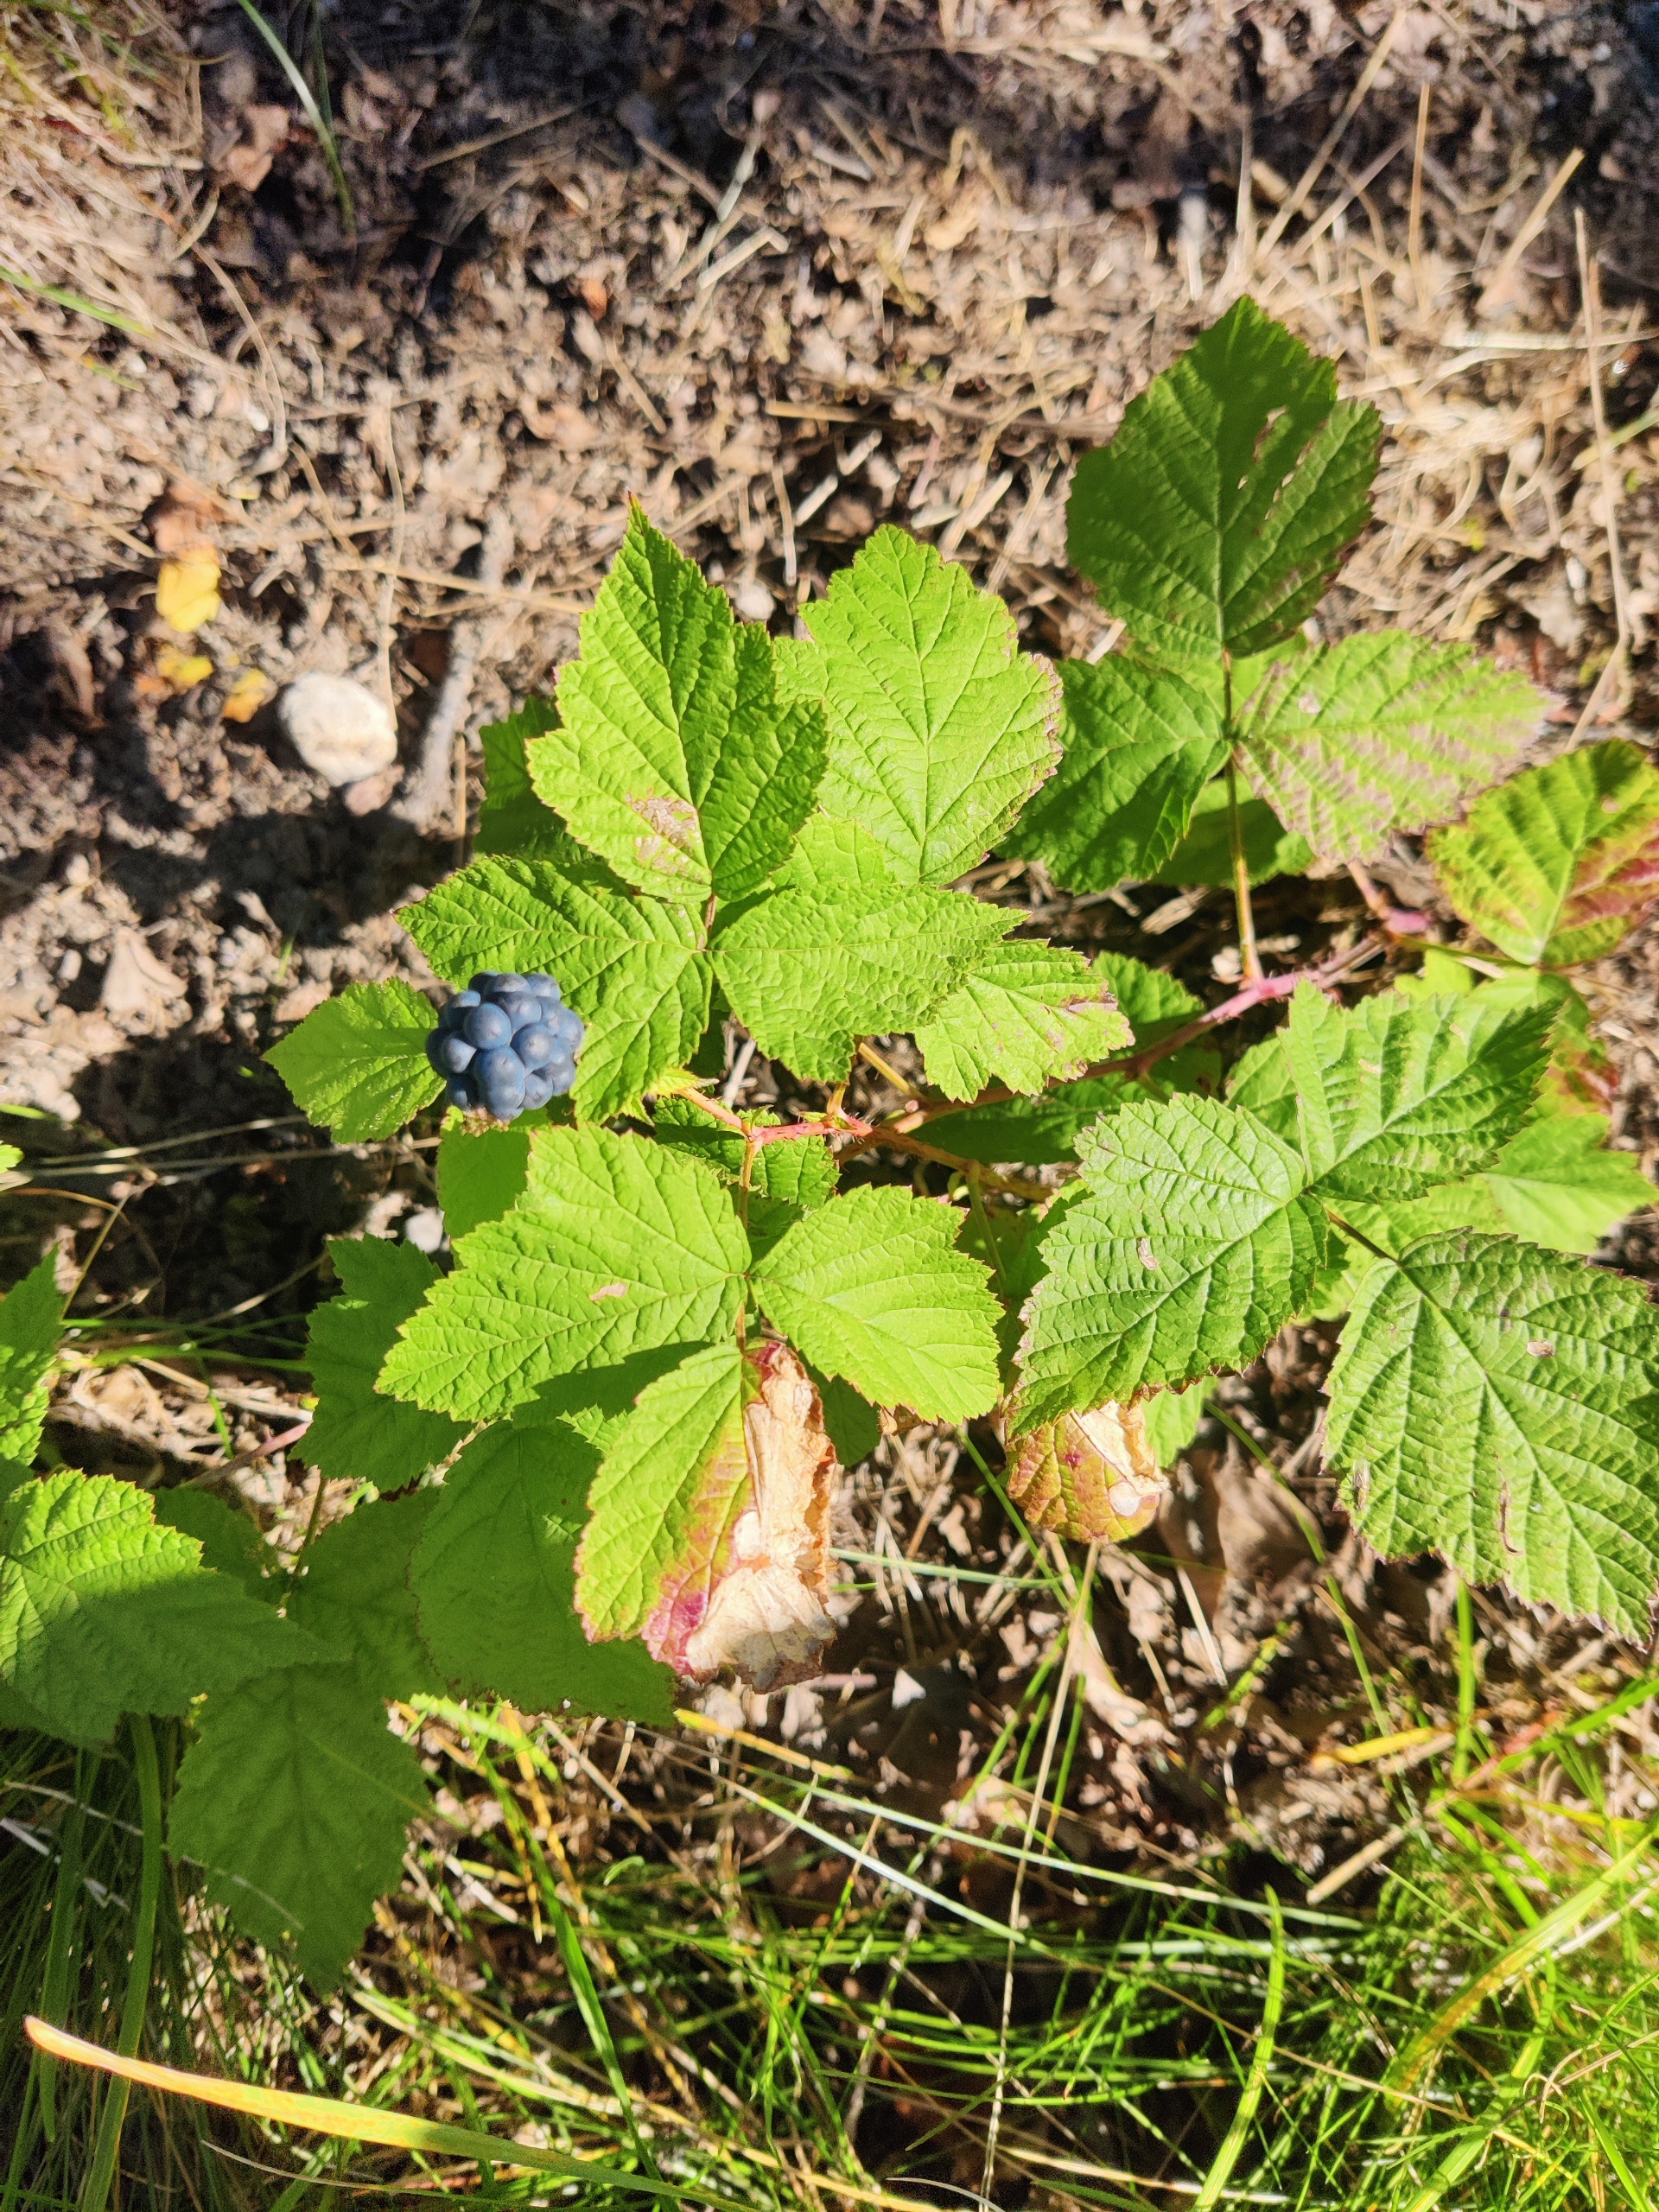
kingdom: Plantae
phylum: Tracheophyta
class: Magnoliopsida
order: Rosales
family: Rosaceae
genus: Rubus
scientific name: Rubus caesius
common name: Korbær
